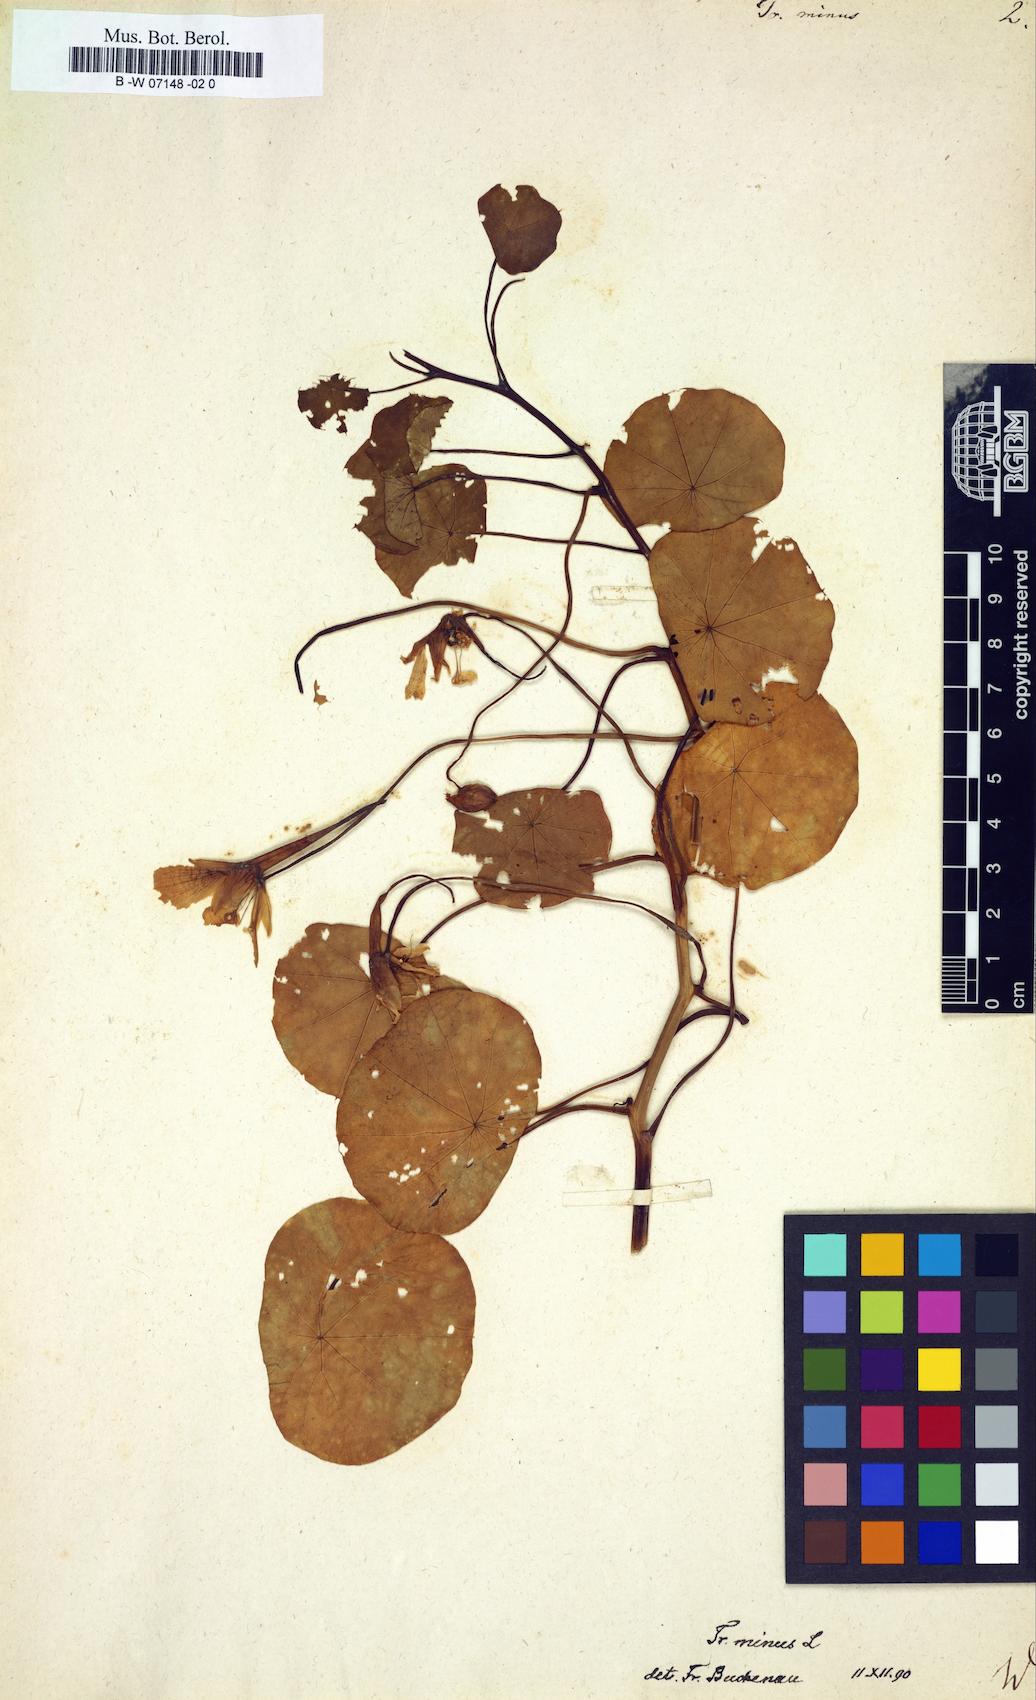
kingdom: Plantae
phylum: Tracheophyta
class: Magnoliopsida
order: Brassicales
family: Tropaeolaceae
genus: Tropaeolum
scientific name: Tropaeolum minus
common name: Dwarf nasturtium
